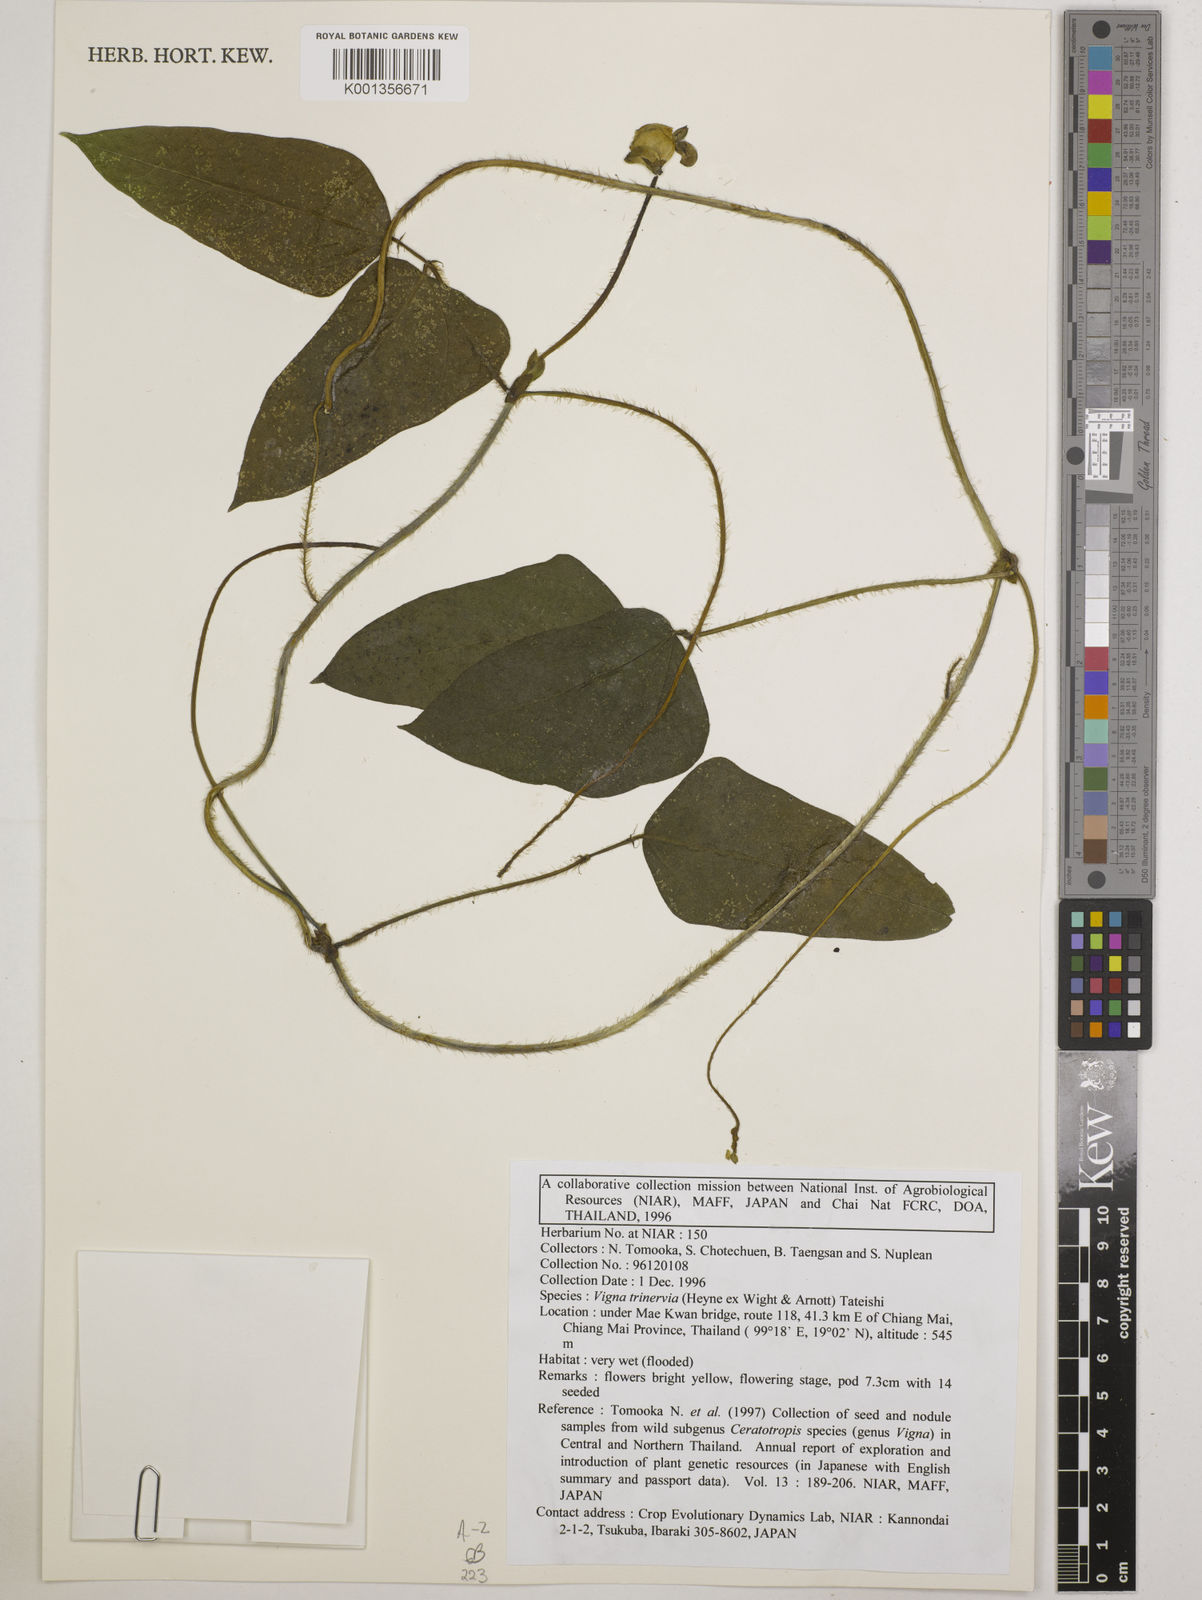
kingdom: Plantae
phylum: Tracheophyta
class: Magnoliopsida
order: Fabales
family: Fabaceae
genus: Vigna
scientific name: Vigna radiata
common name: Mung-bean
